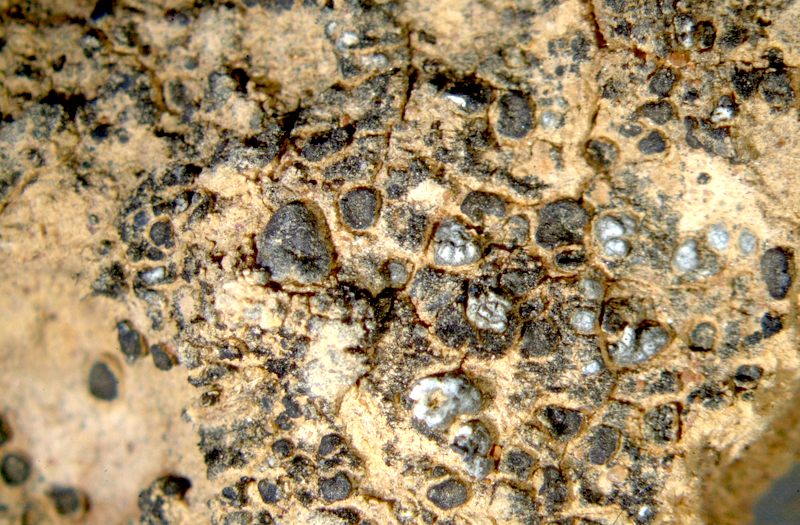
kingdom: Fungi
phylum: Ascomycota
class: Eurotiomycetes
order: Verrucariales
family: Verrucariaceae
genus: Catapyrenium
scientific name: Catapyrenium tenellum
